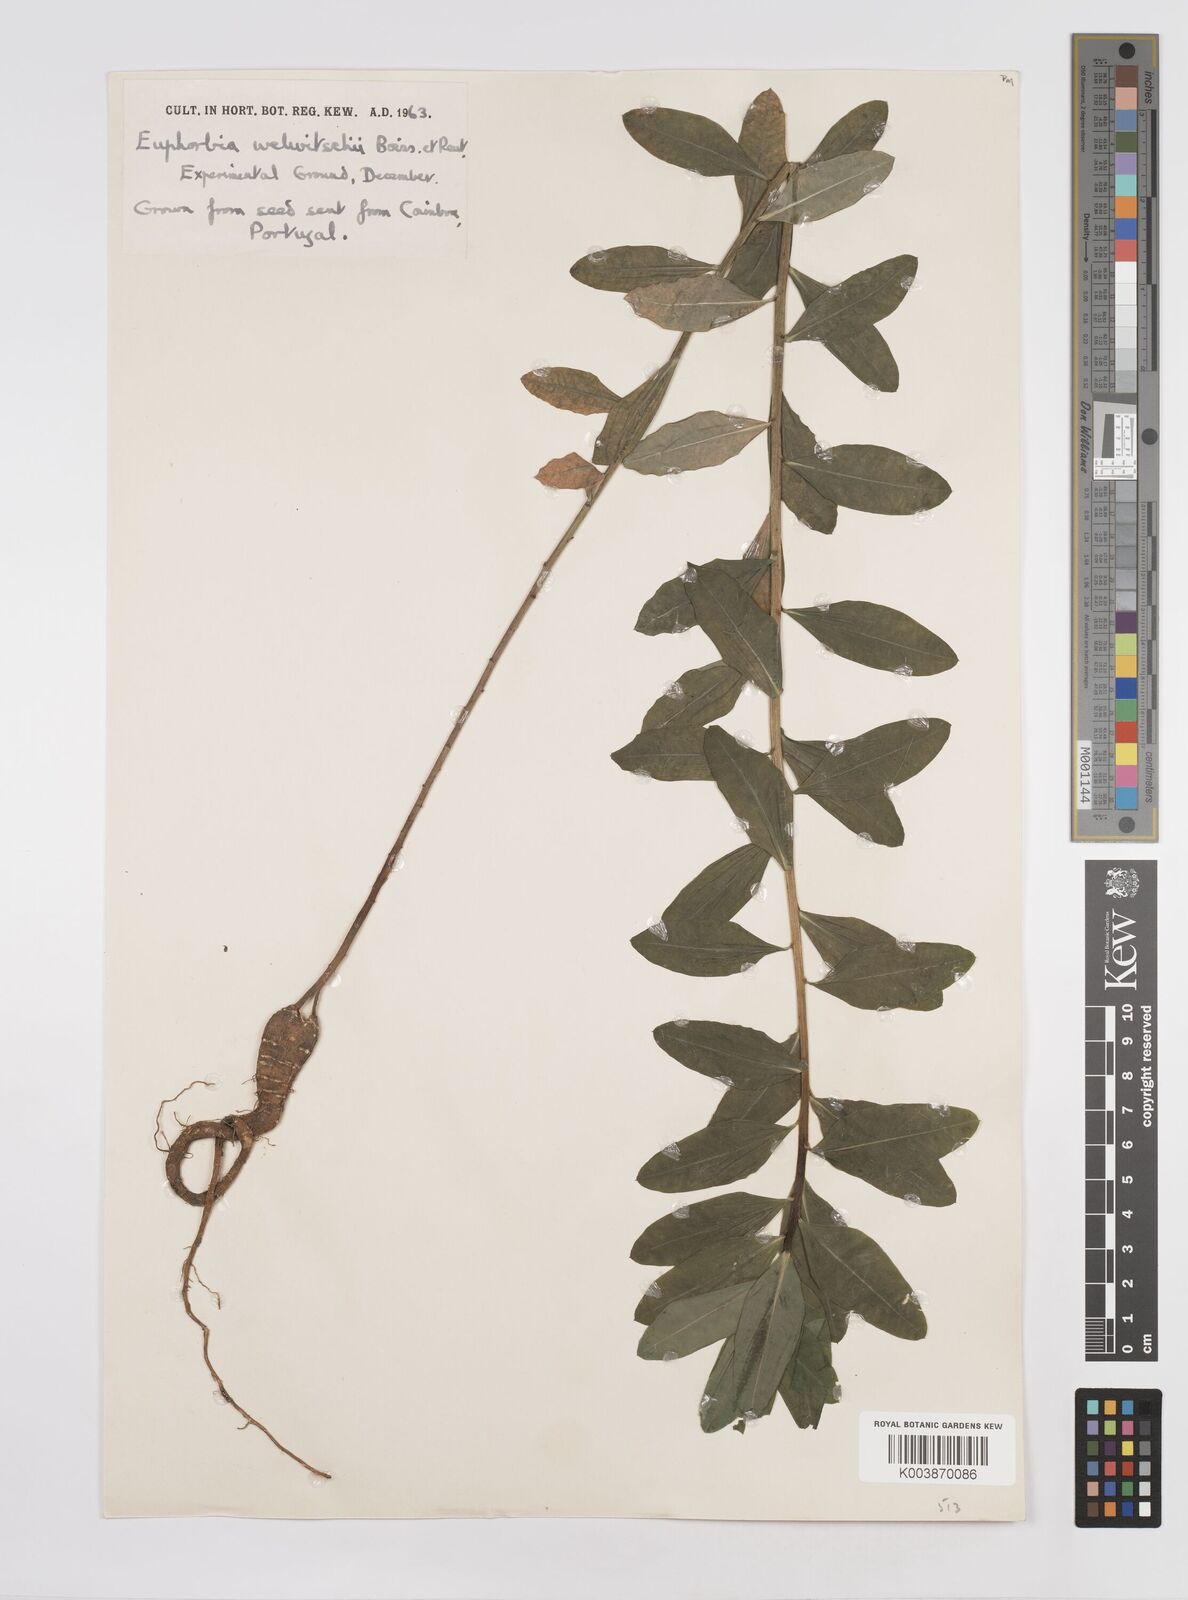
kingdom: Plantae
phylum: Tracheophyta
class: Magnoliopsida
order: Malpighiales
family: Euphorbiaceae
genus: Euphorbia
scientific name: Euphorbia paniculata
